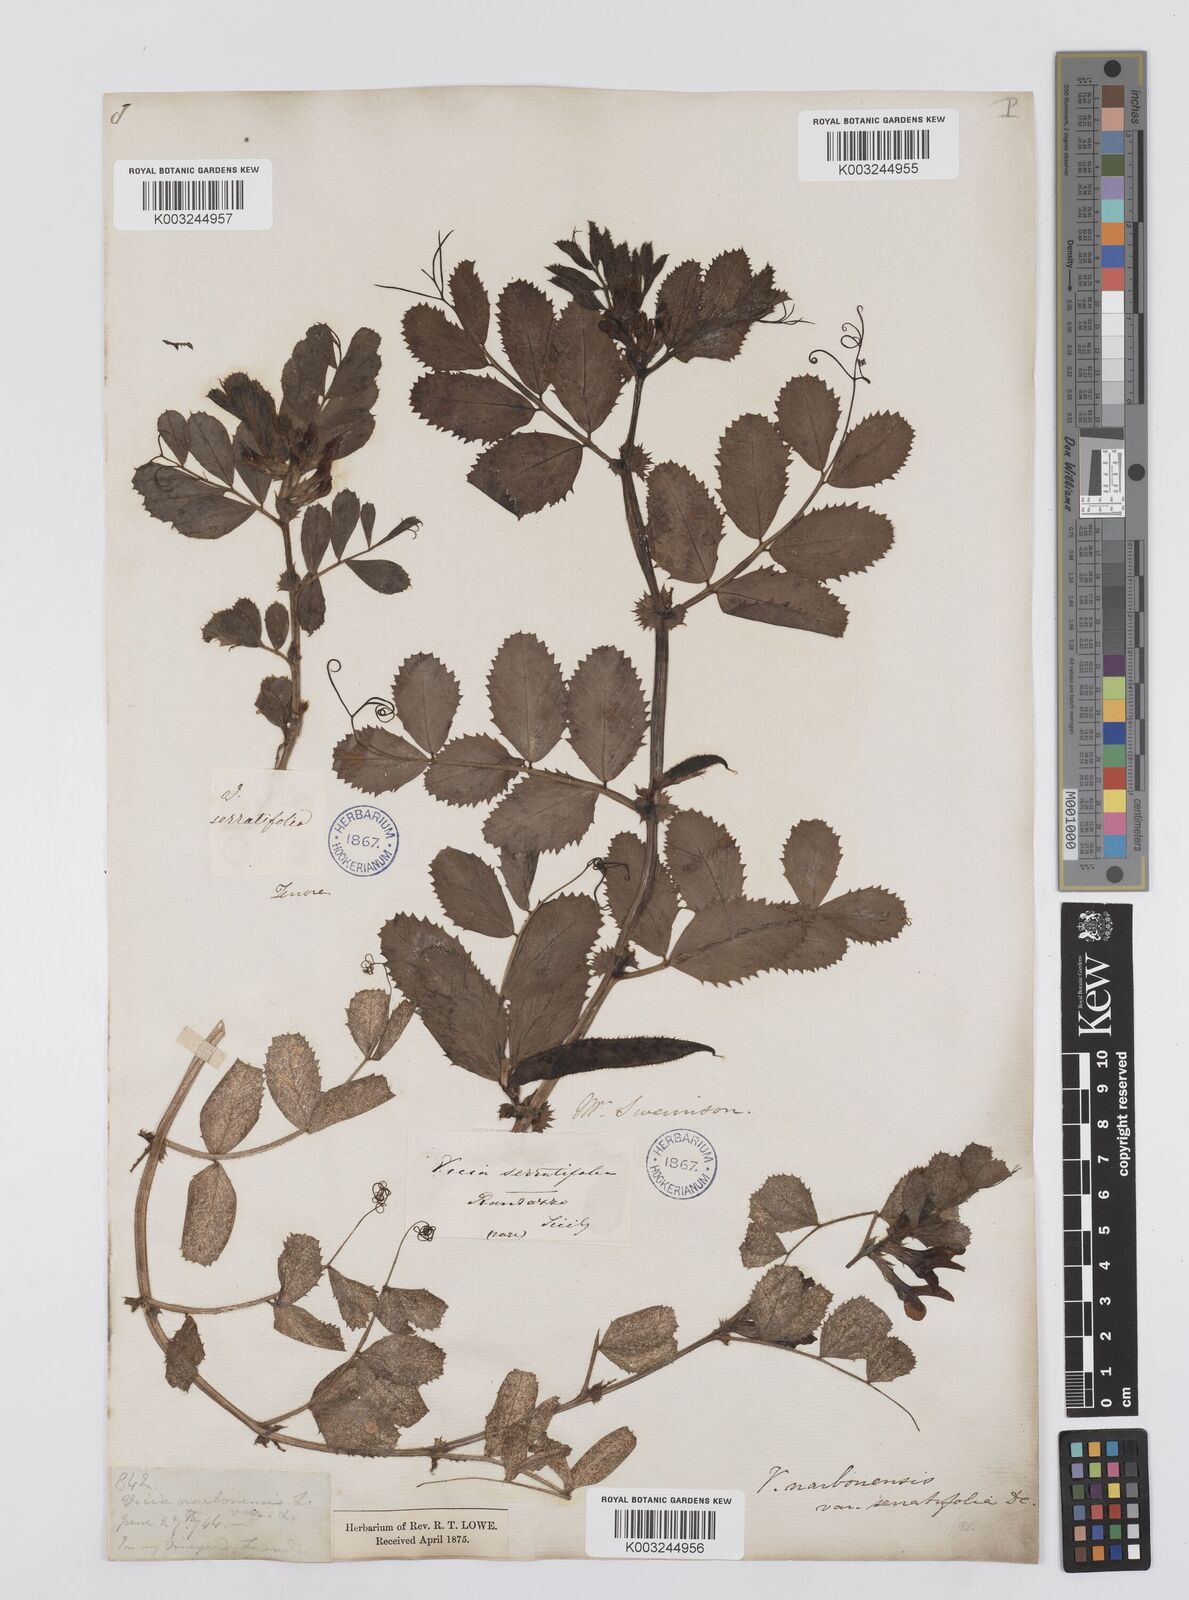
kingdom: Plantae
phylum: Tracheophyta
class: Magnoliopsida
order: Fabales
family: Fabaceae
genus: Vicia
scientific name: Vicia serratifolia
